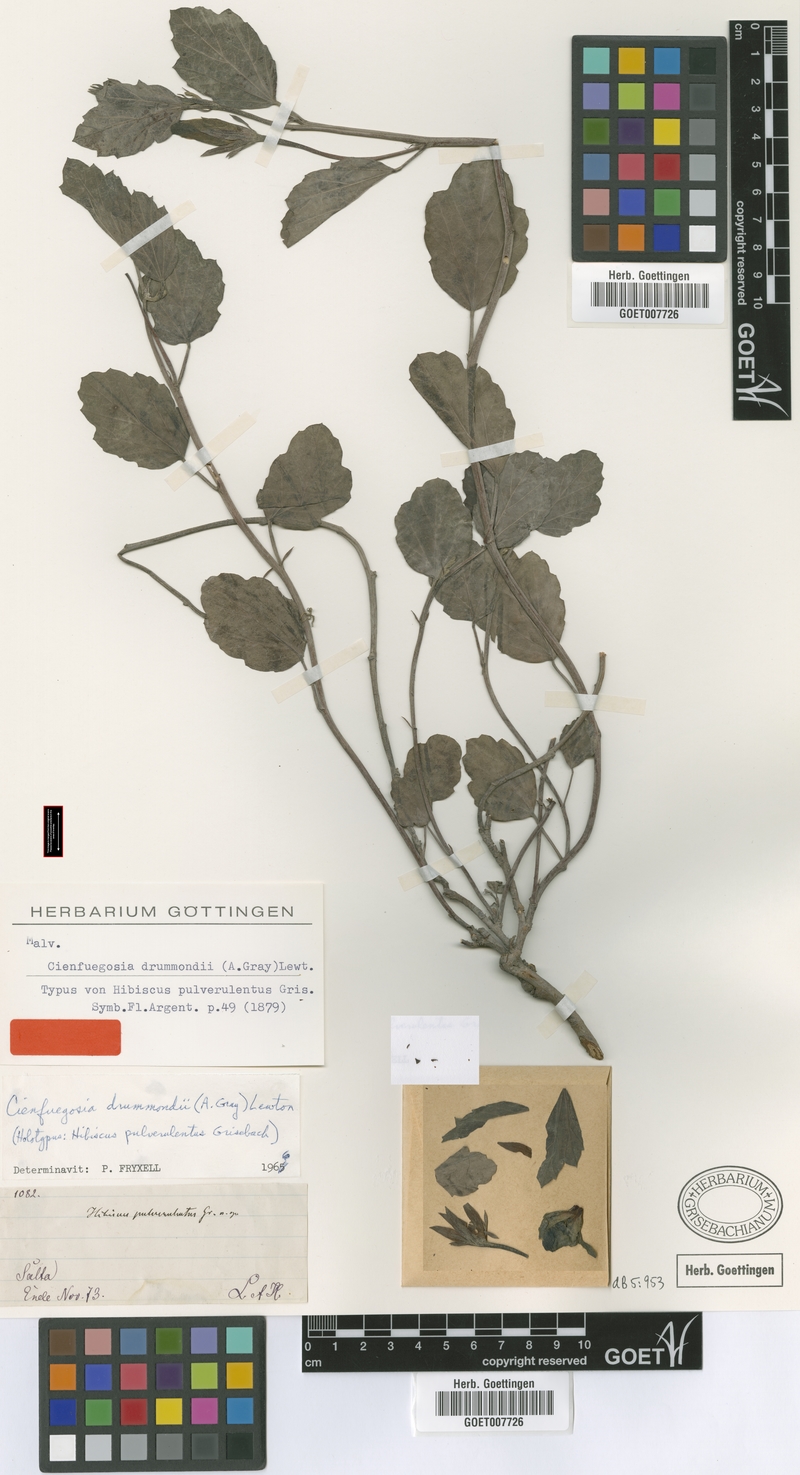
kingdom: Plantae
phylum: Tracheophyta
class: Magnoliopsida
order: Malvales
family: Malvaceae
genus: Cienfuegosia
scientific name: Cienfuegosia drummondii
